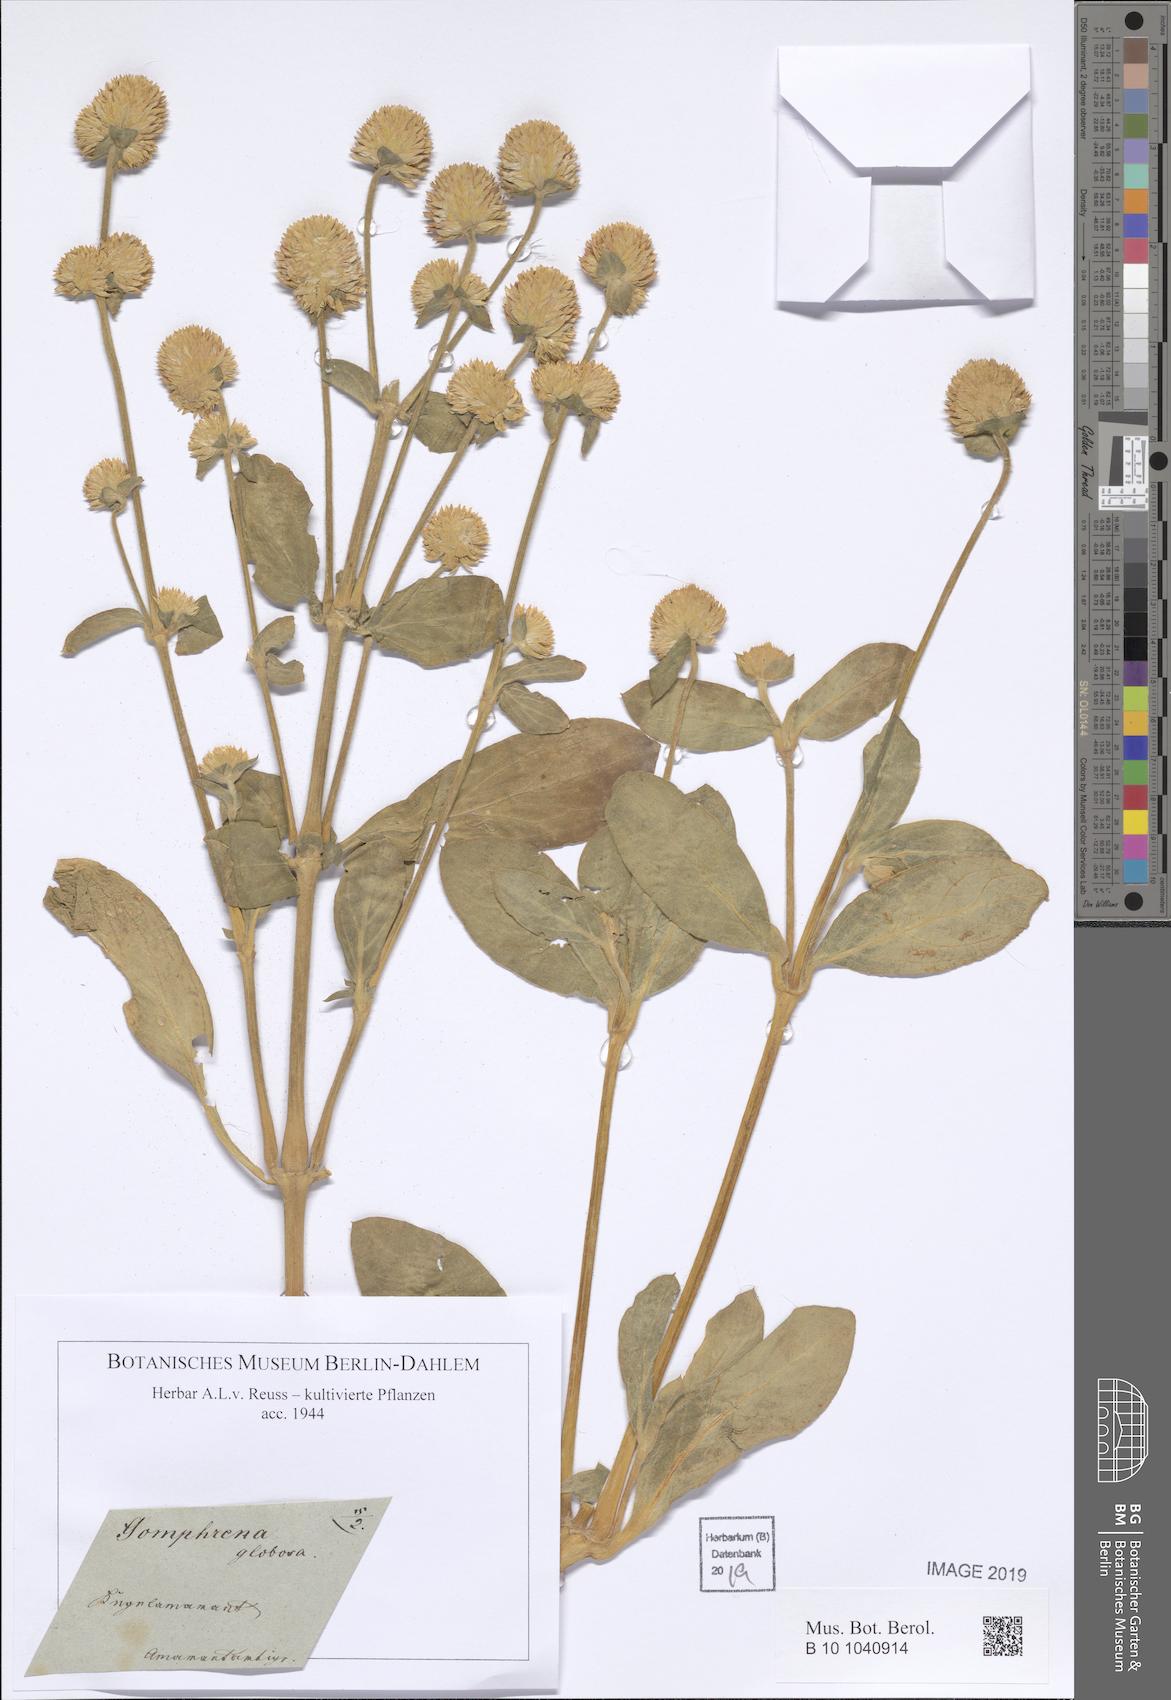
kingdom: Plantae
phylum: Tracheophyta
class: Magnoliopsida
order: Caryophyllales
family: Amaranthaceae
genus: Gomphrena
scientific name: Gomphrena globosa
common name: Common globe amaranth
